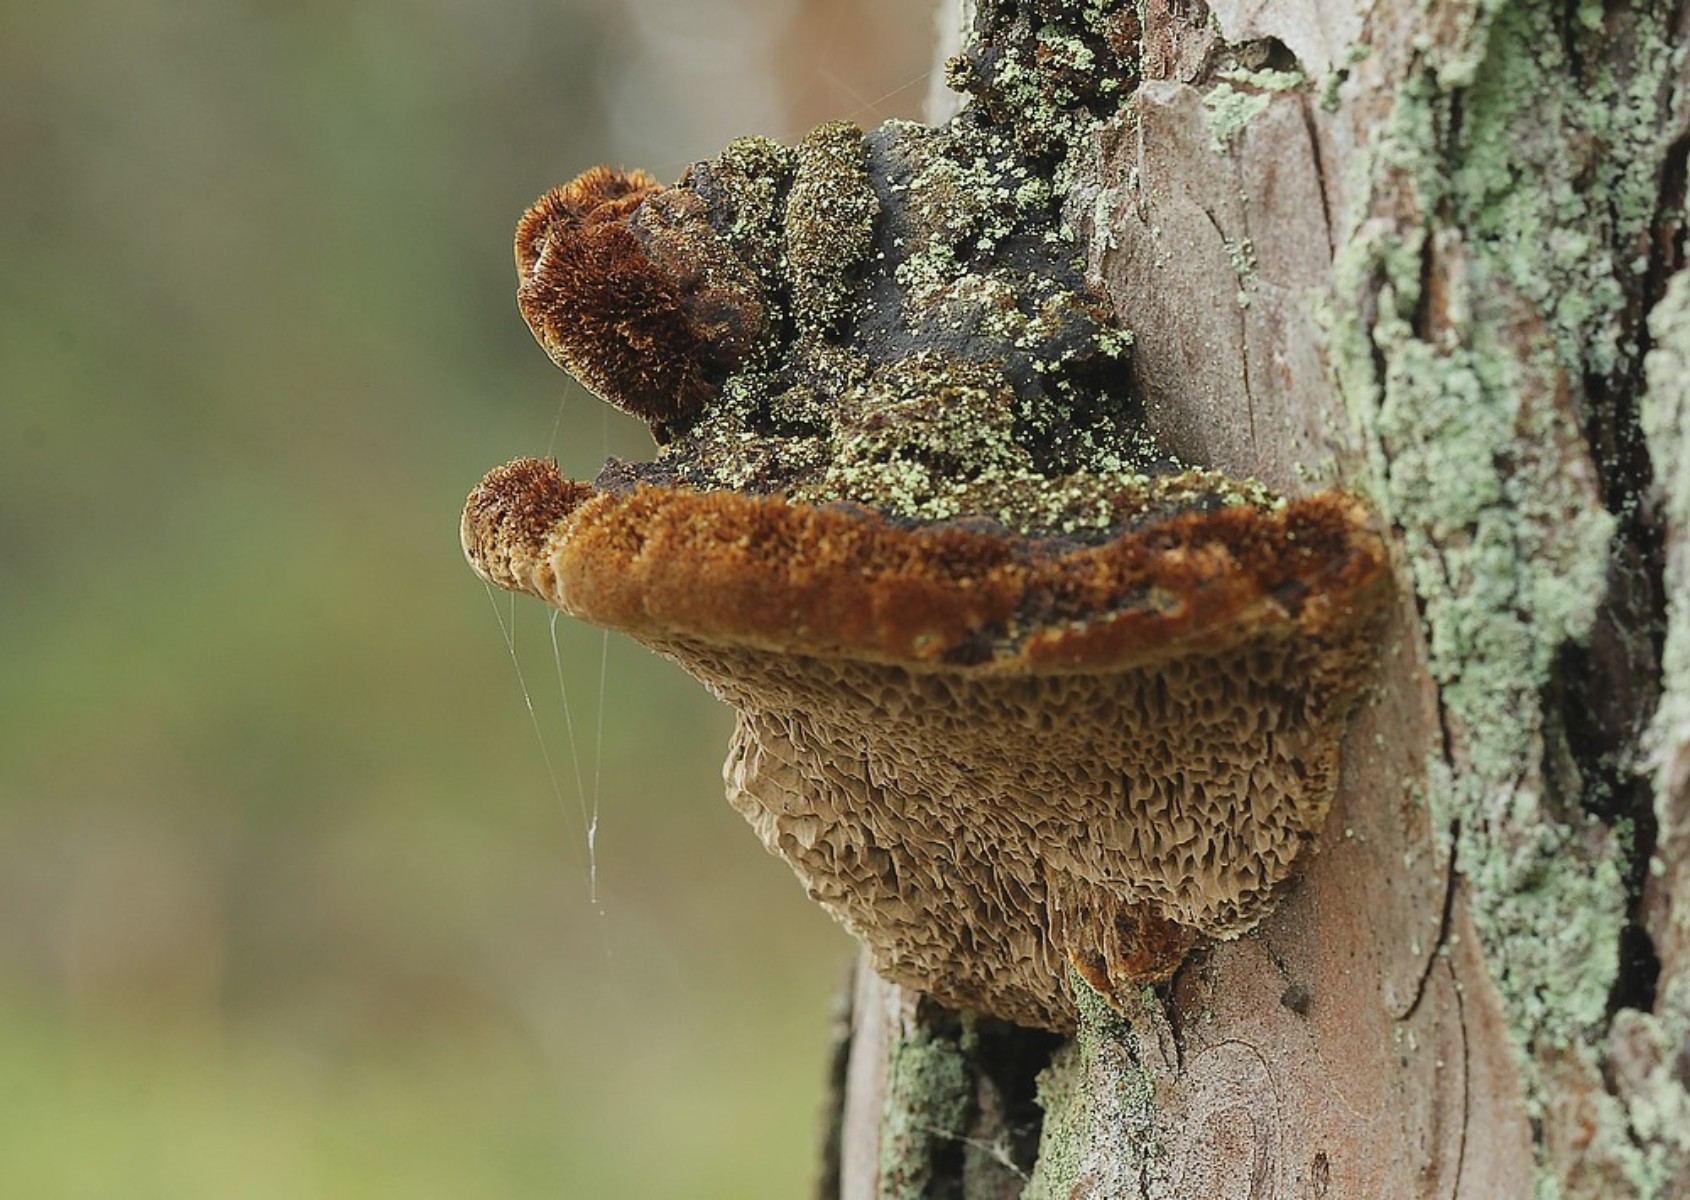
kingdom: Fungi
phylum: Basidiomycota
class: Agaricomycetes
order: Hymenochaetales
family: Hymenochaetaceae
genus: Porodaedalea
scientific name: Porodaedalea pini
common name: fyrre-ildporesvamp
